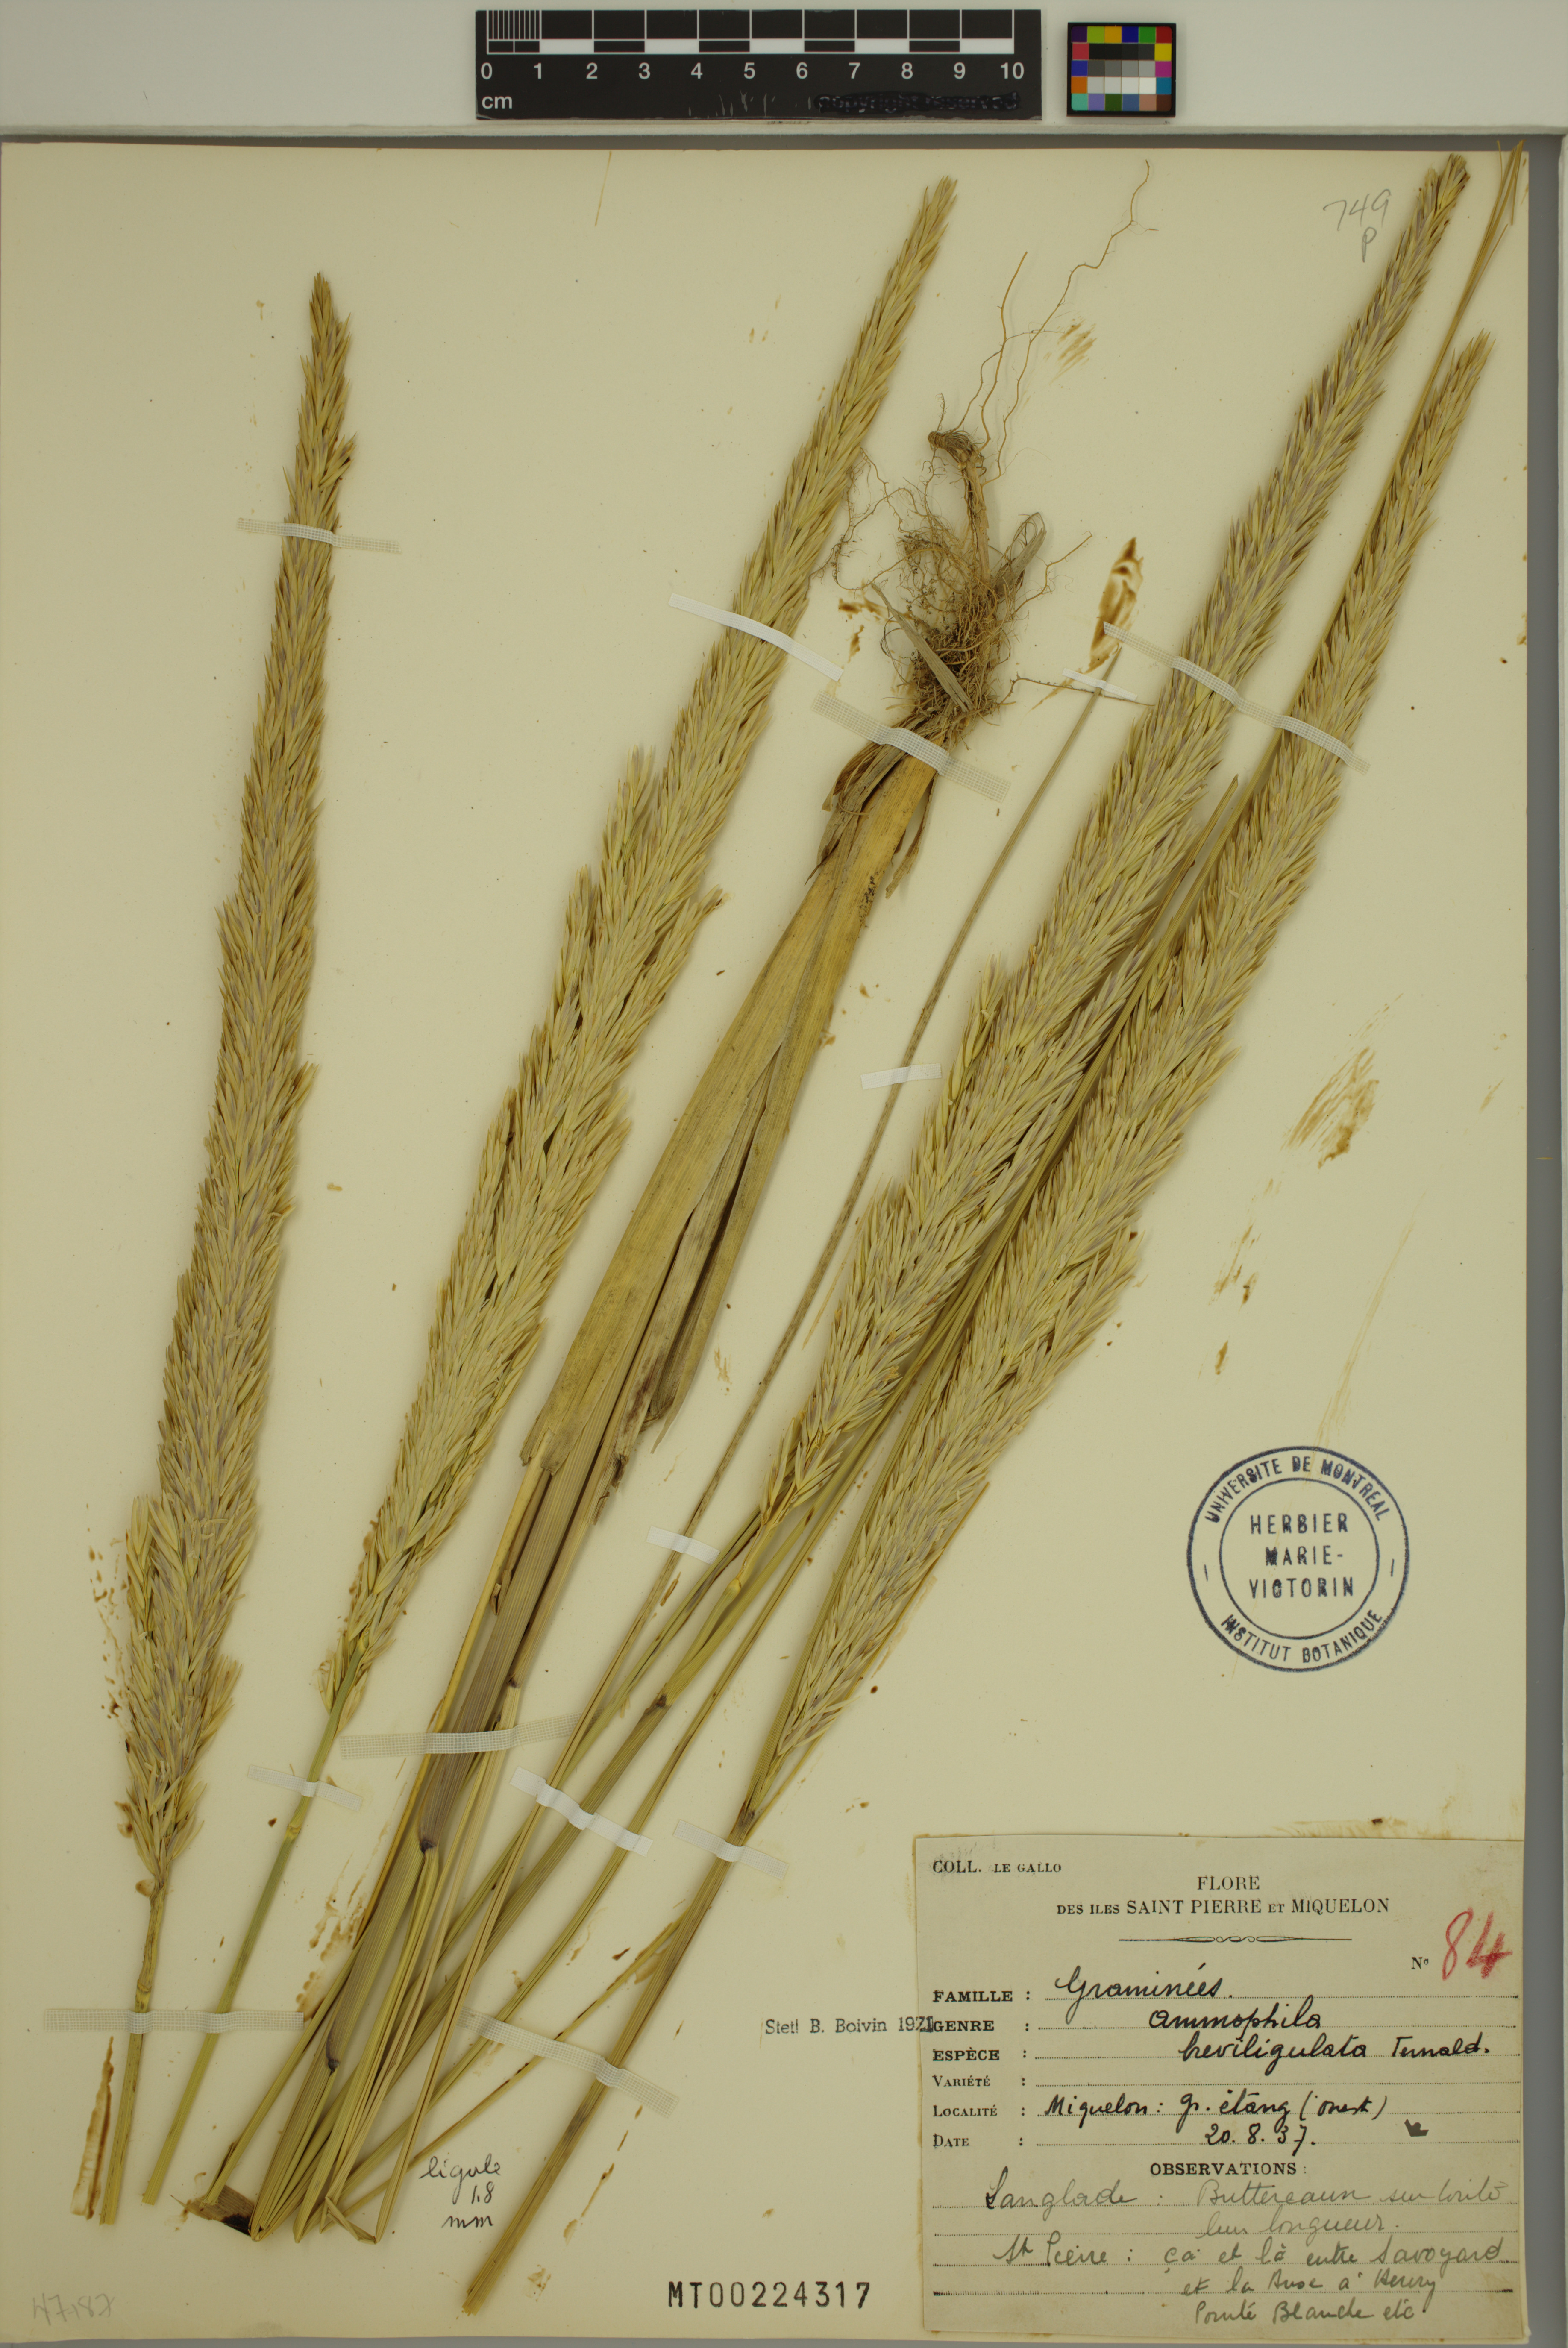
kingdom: Plantae
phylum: Tracheophyta
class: Liliopsida
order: Poales
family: Poaceae
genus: Calamagrostis
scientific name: Calamagrostis breviligulata
